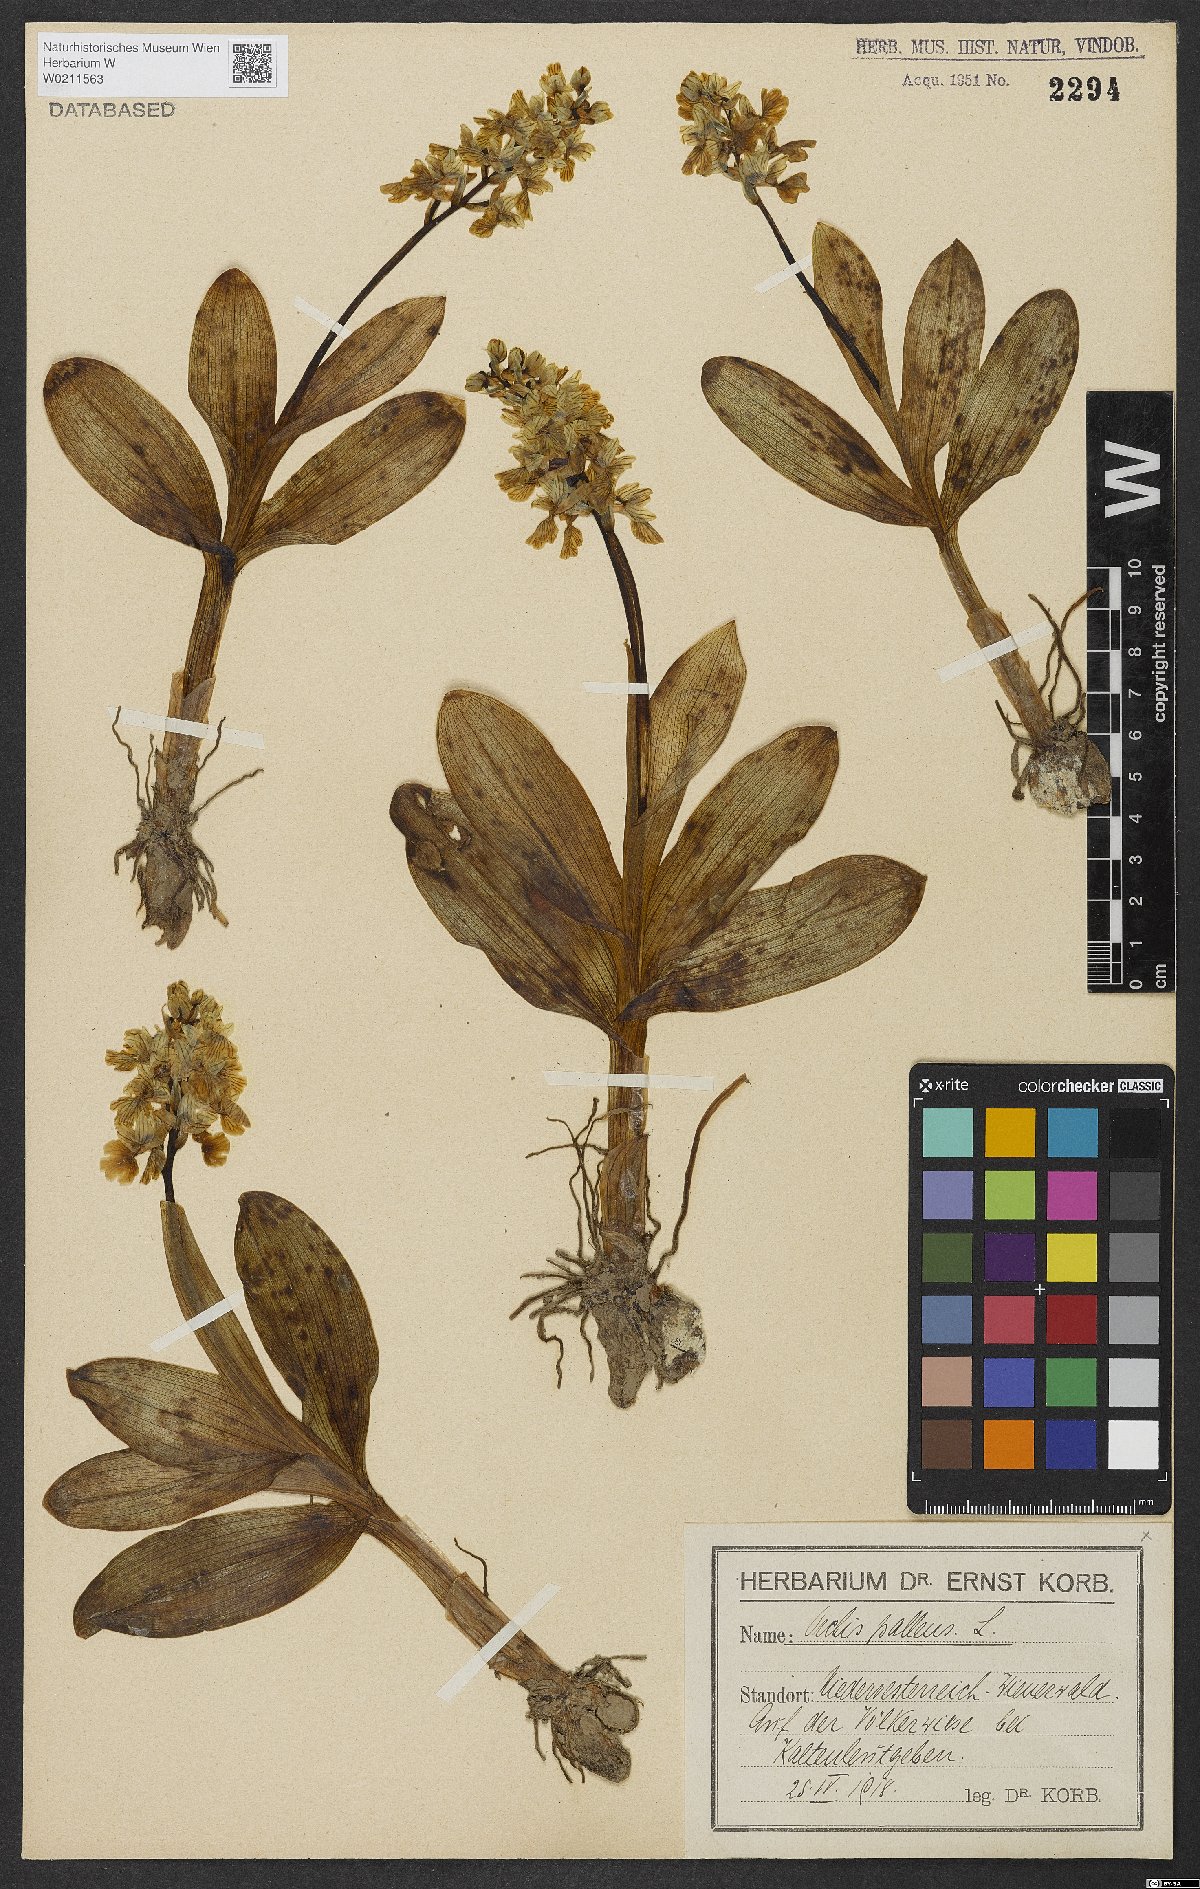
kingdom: Plantae
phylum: Tracheophyta
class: Liliopsida
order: Asparagales
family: Orchidaceae
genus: Orchis
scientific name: Orchis pallens
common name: Pale-flowered orchid
